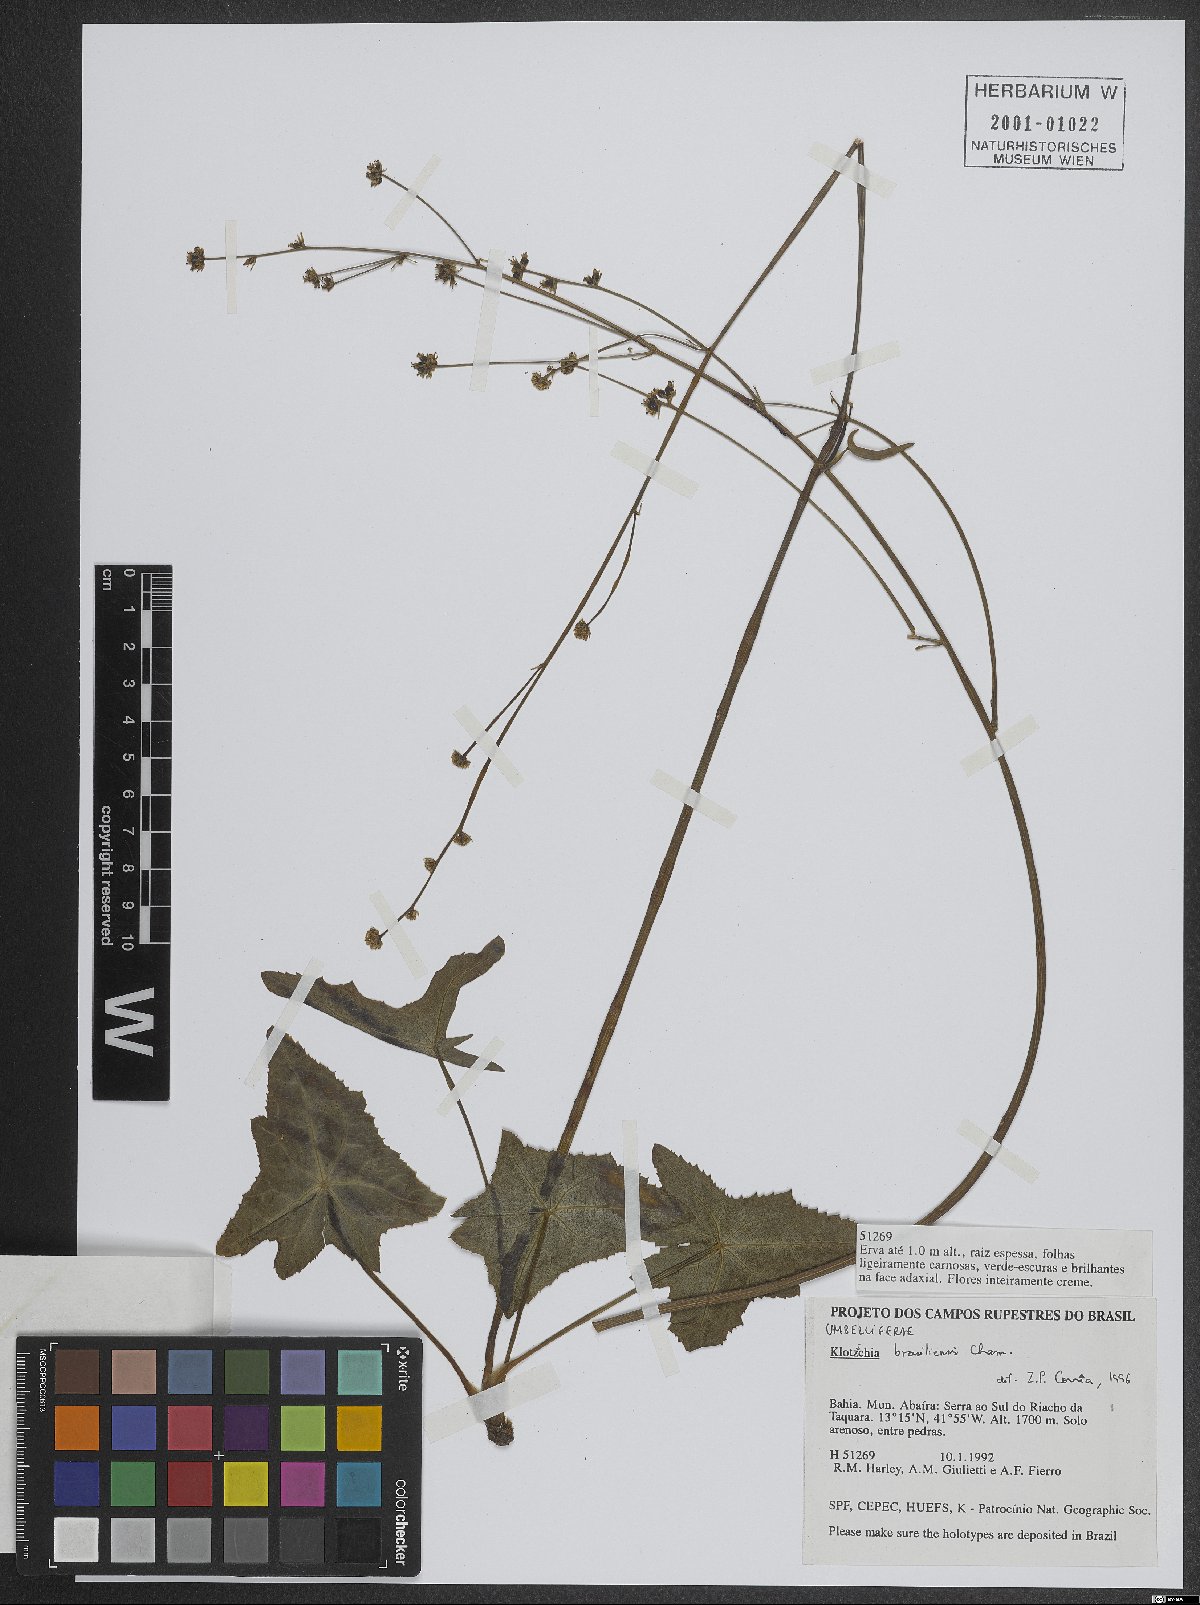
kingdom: Plantae
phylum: Tracheophyta
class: Magnoliopsida
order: Apiales
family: Apiaceae
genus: Klotzschia
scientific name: Klotzschia rhizophylla
